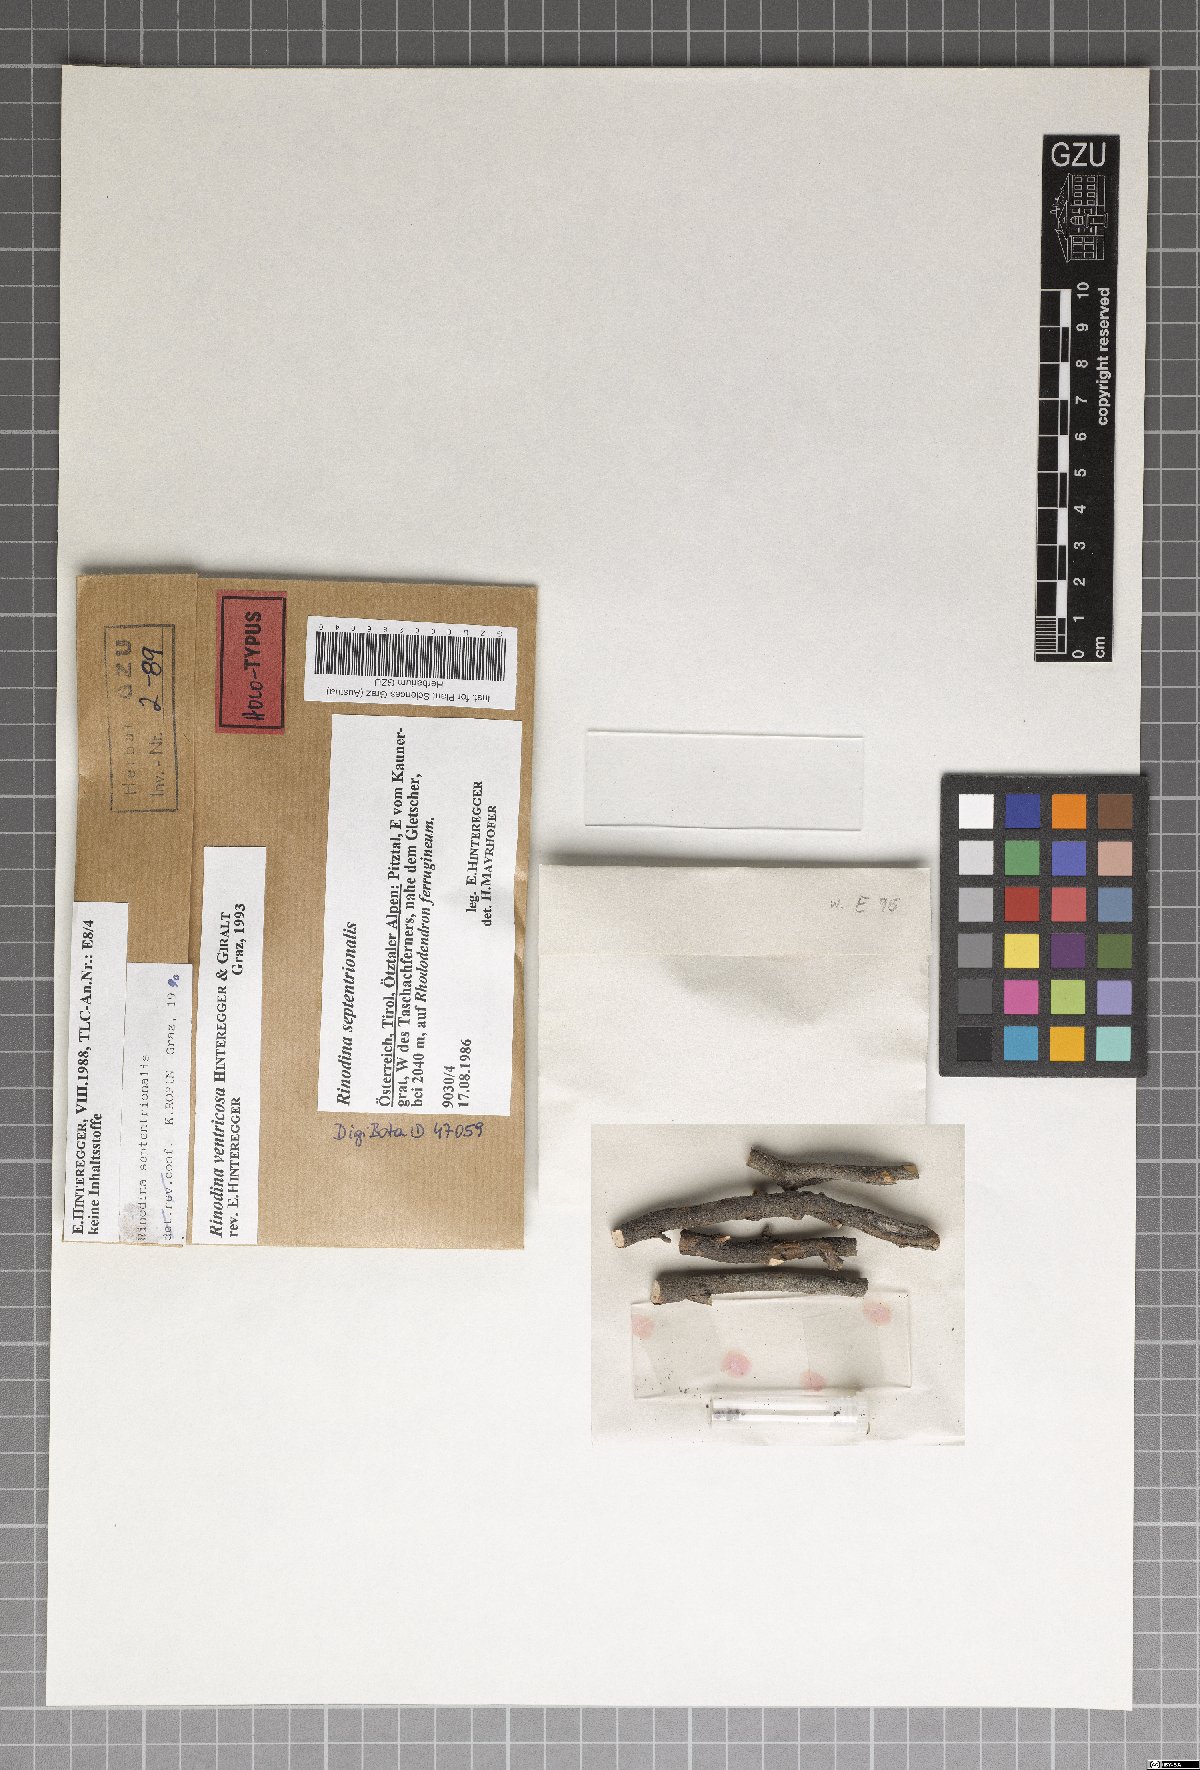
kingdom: Fungi
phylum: Ascomycota
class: Lecanoromycetes
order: Caliciales
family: Physciaceae
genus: Rinodina
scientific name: Rinodina
